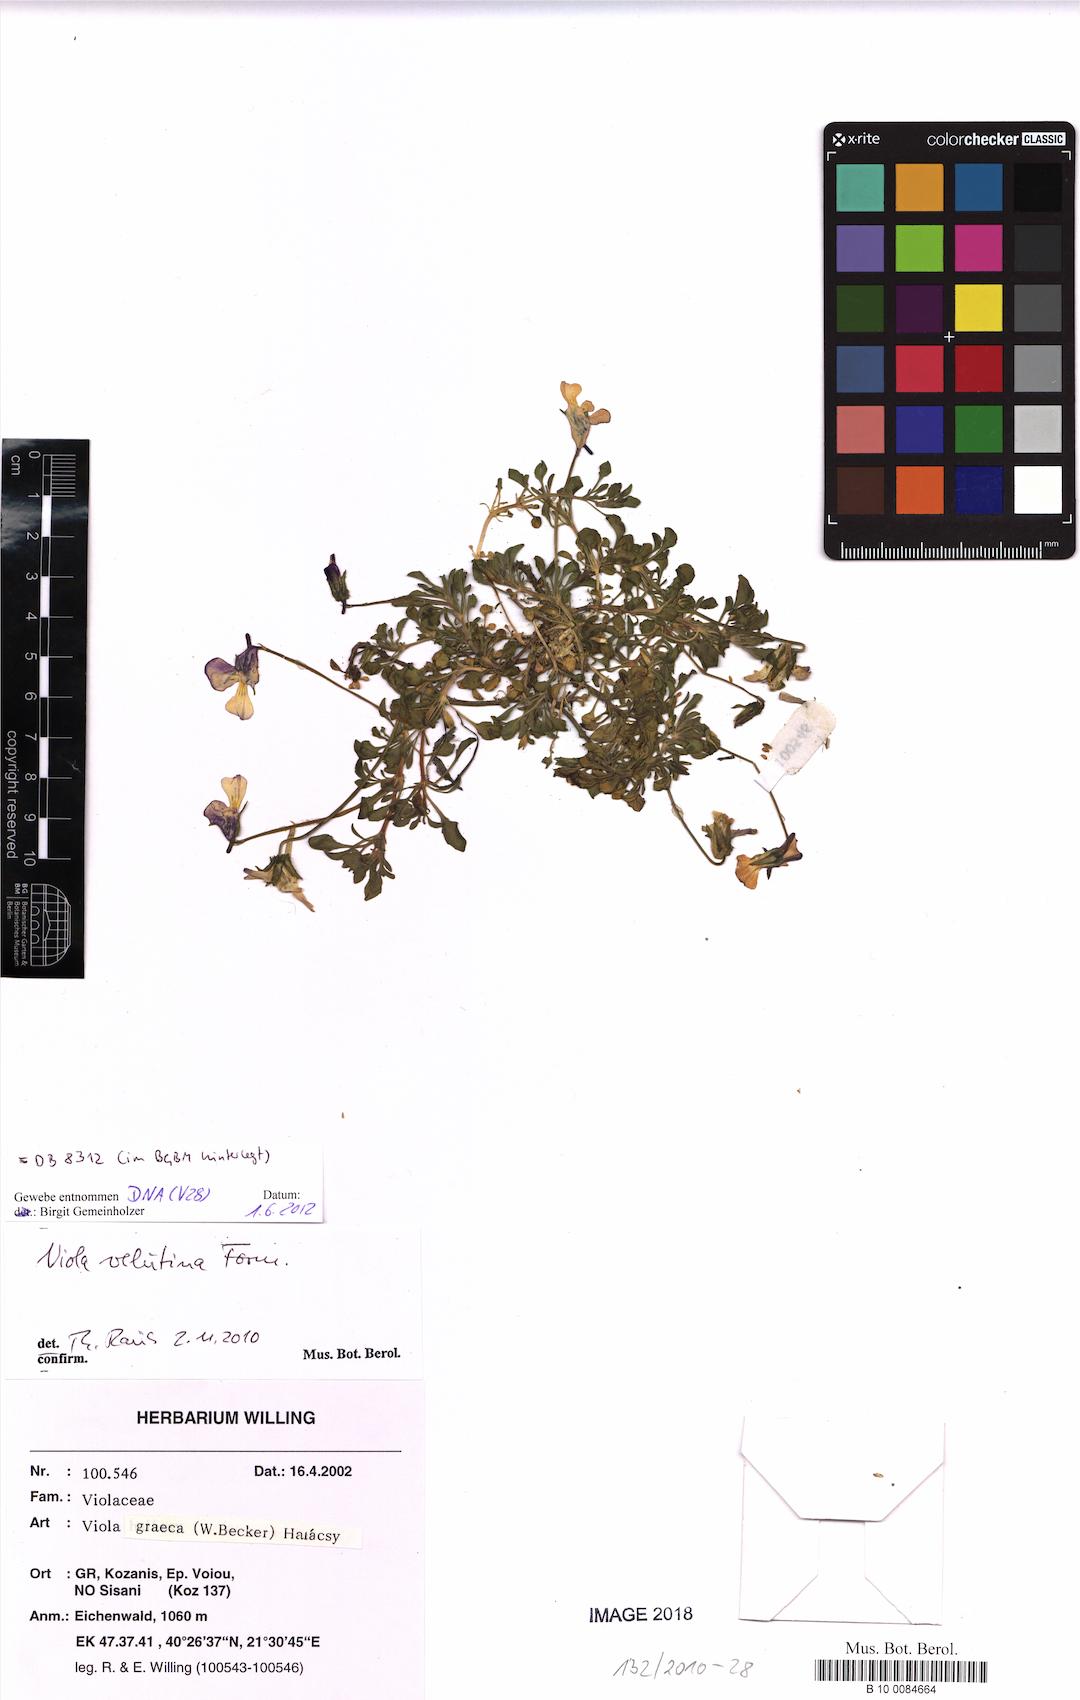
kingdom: Plantae
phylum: Tracheophyta
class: Magnoliopsida
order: Malpighiales
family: Violaceae
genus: Viola
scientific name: Viola velutina
